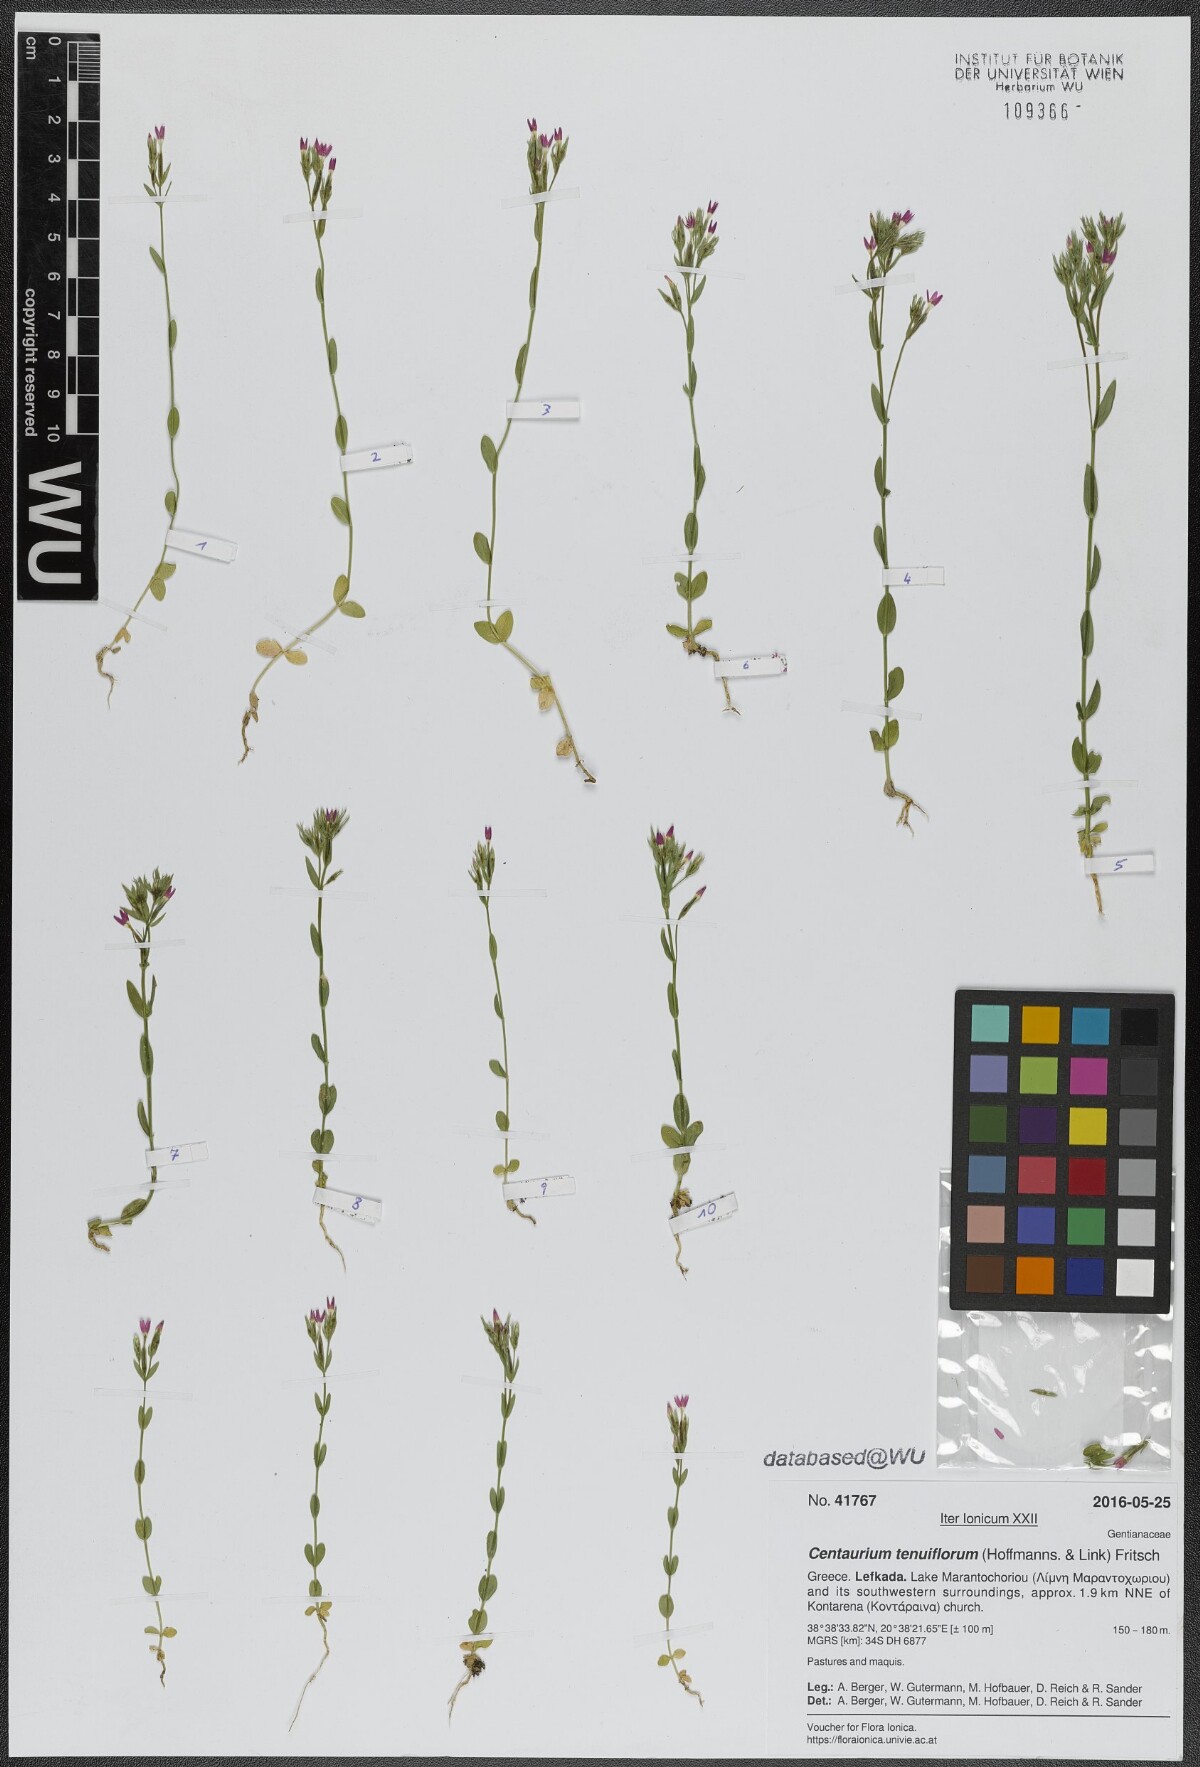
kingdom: Plantae
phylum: Tracheophyta
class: Magnoliopsida
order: Gentianales
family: Gentianaceae
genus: Centaurium
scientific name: Centaurium tenuiflorum
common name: Slender centaury
